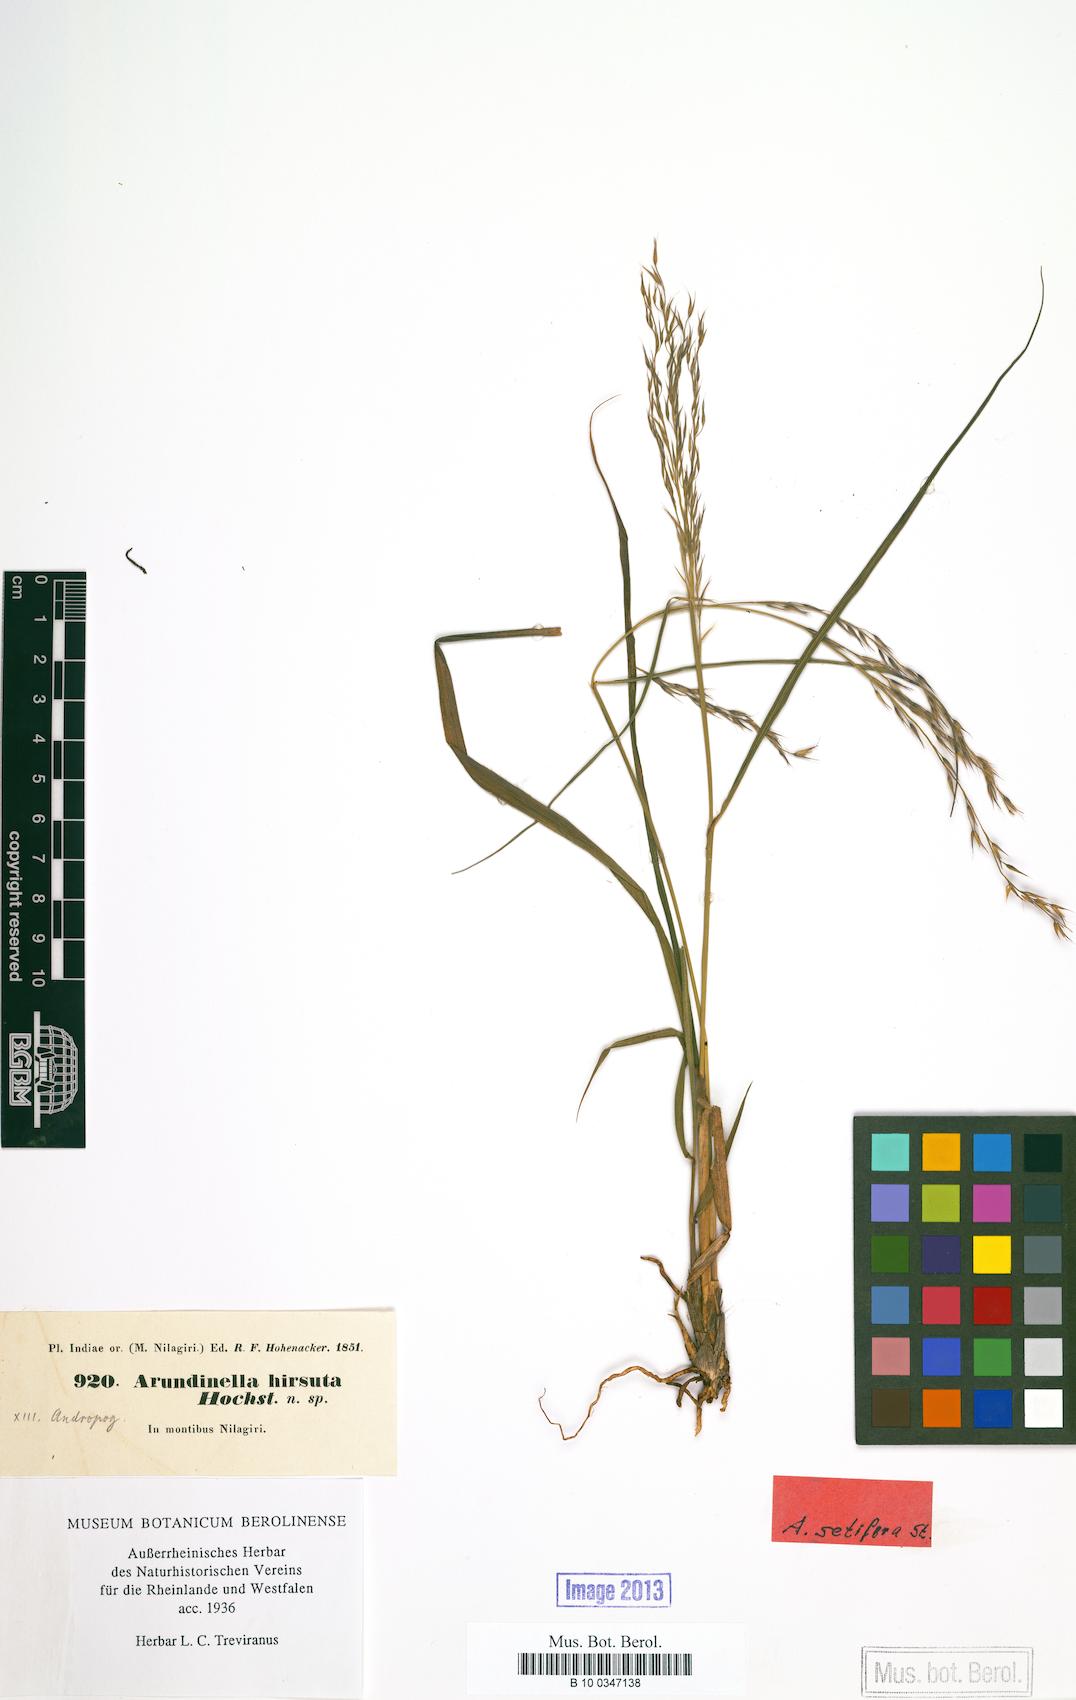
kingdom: Plantae
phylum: Tracheophyta
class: Liliopsida
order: Poales
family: Poaceae
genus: Arundinella
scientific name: Arundinella setosa
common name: Reed grass
